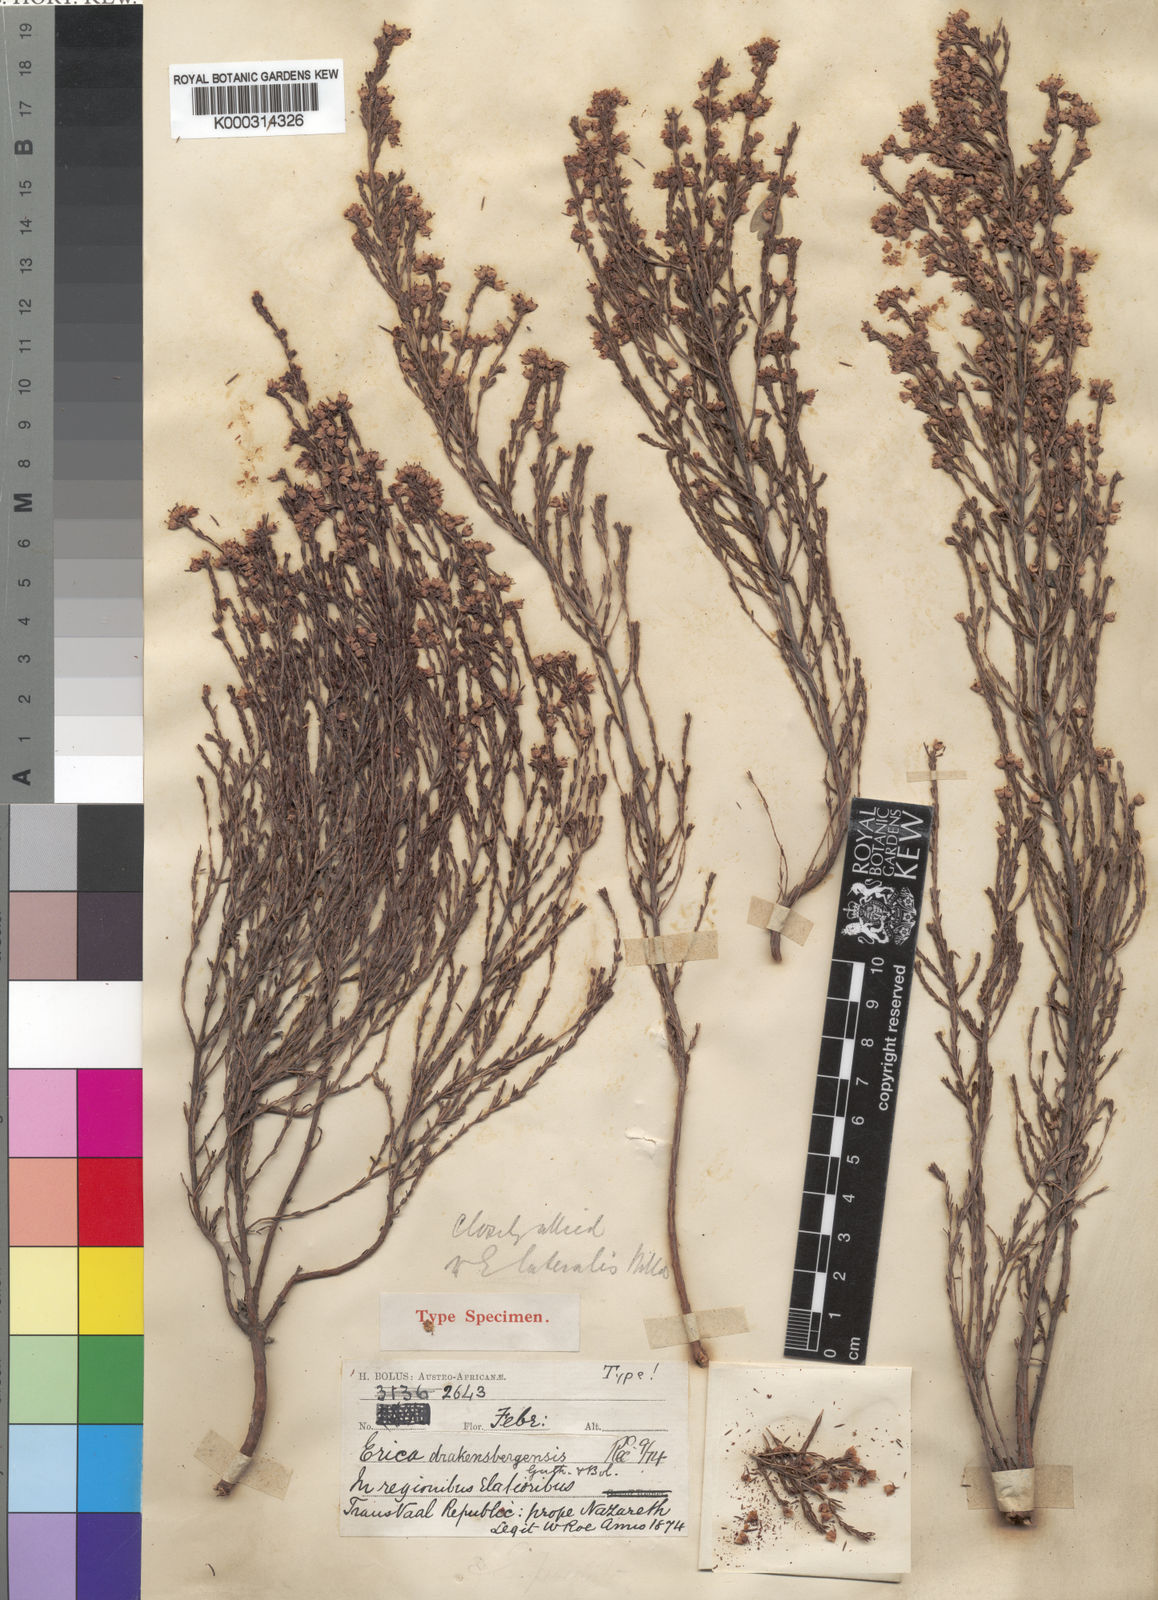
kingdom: Plantae
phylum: Tracheophyta
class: Magnoliopsida
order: Ericales
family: Ericaceae
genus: Erica
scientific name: Erica drakensbergensis
